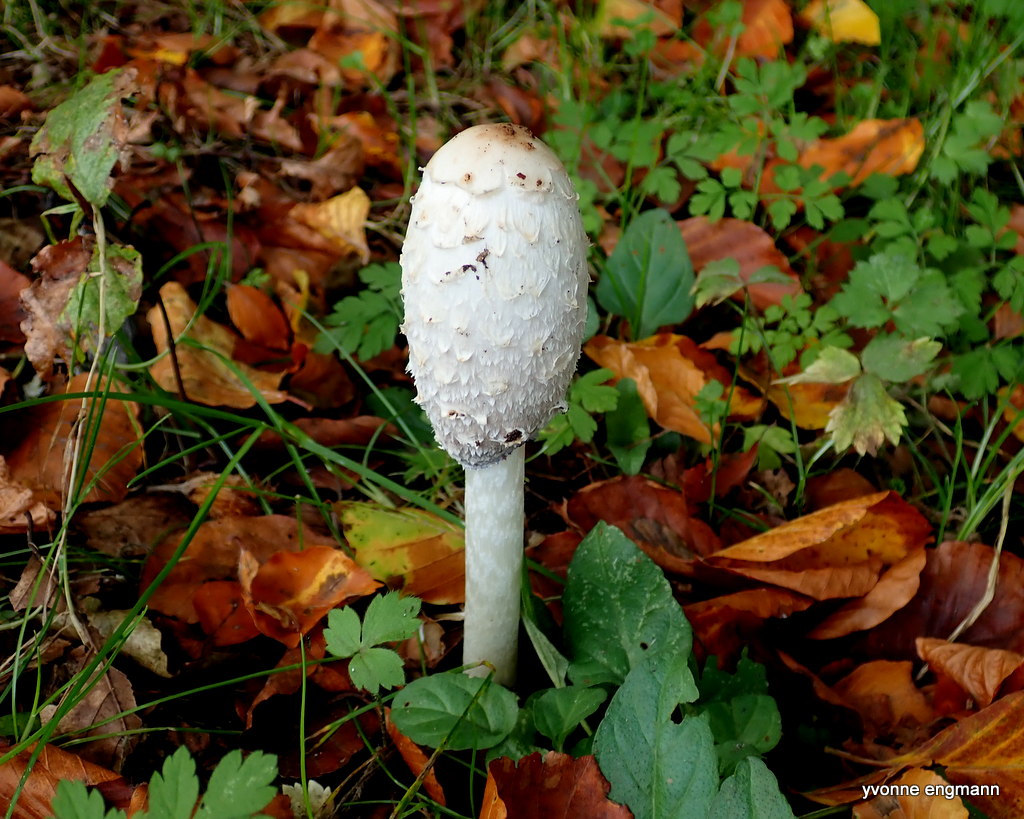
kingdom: Fungi
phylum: Basidiomycota
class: Agaricomycetes
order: Agaricales
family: Agaricaceae
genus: Coprinus
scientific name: Coprinus comatus
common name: stor parykhat
